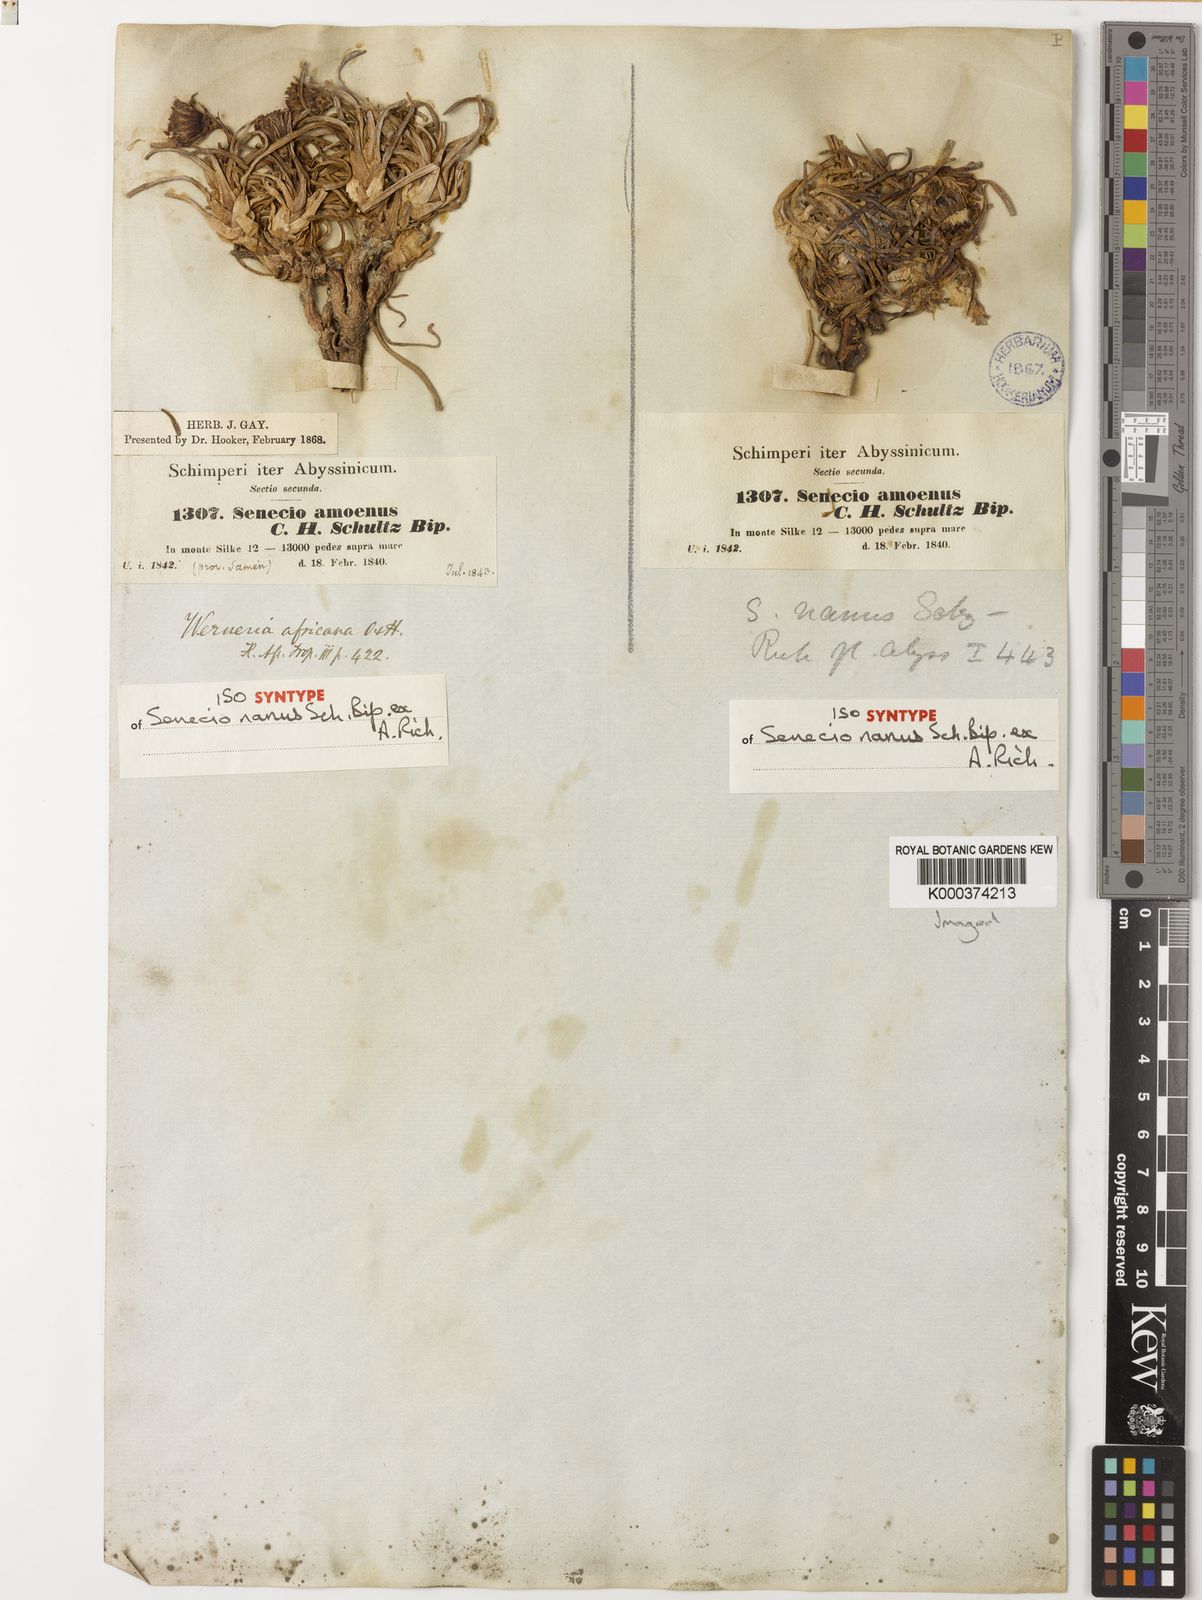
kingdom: Plantae
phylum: Tracheophyta
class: Magnoliopsida
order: Asterales
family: Asteraceae
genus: Senecio
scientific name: Senecio nanus
